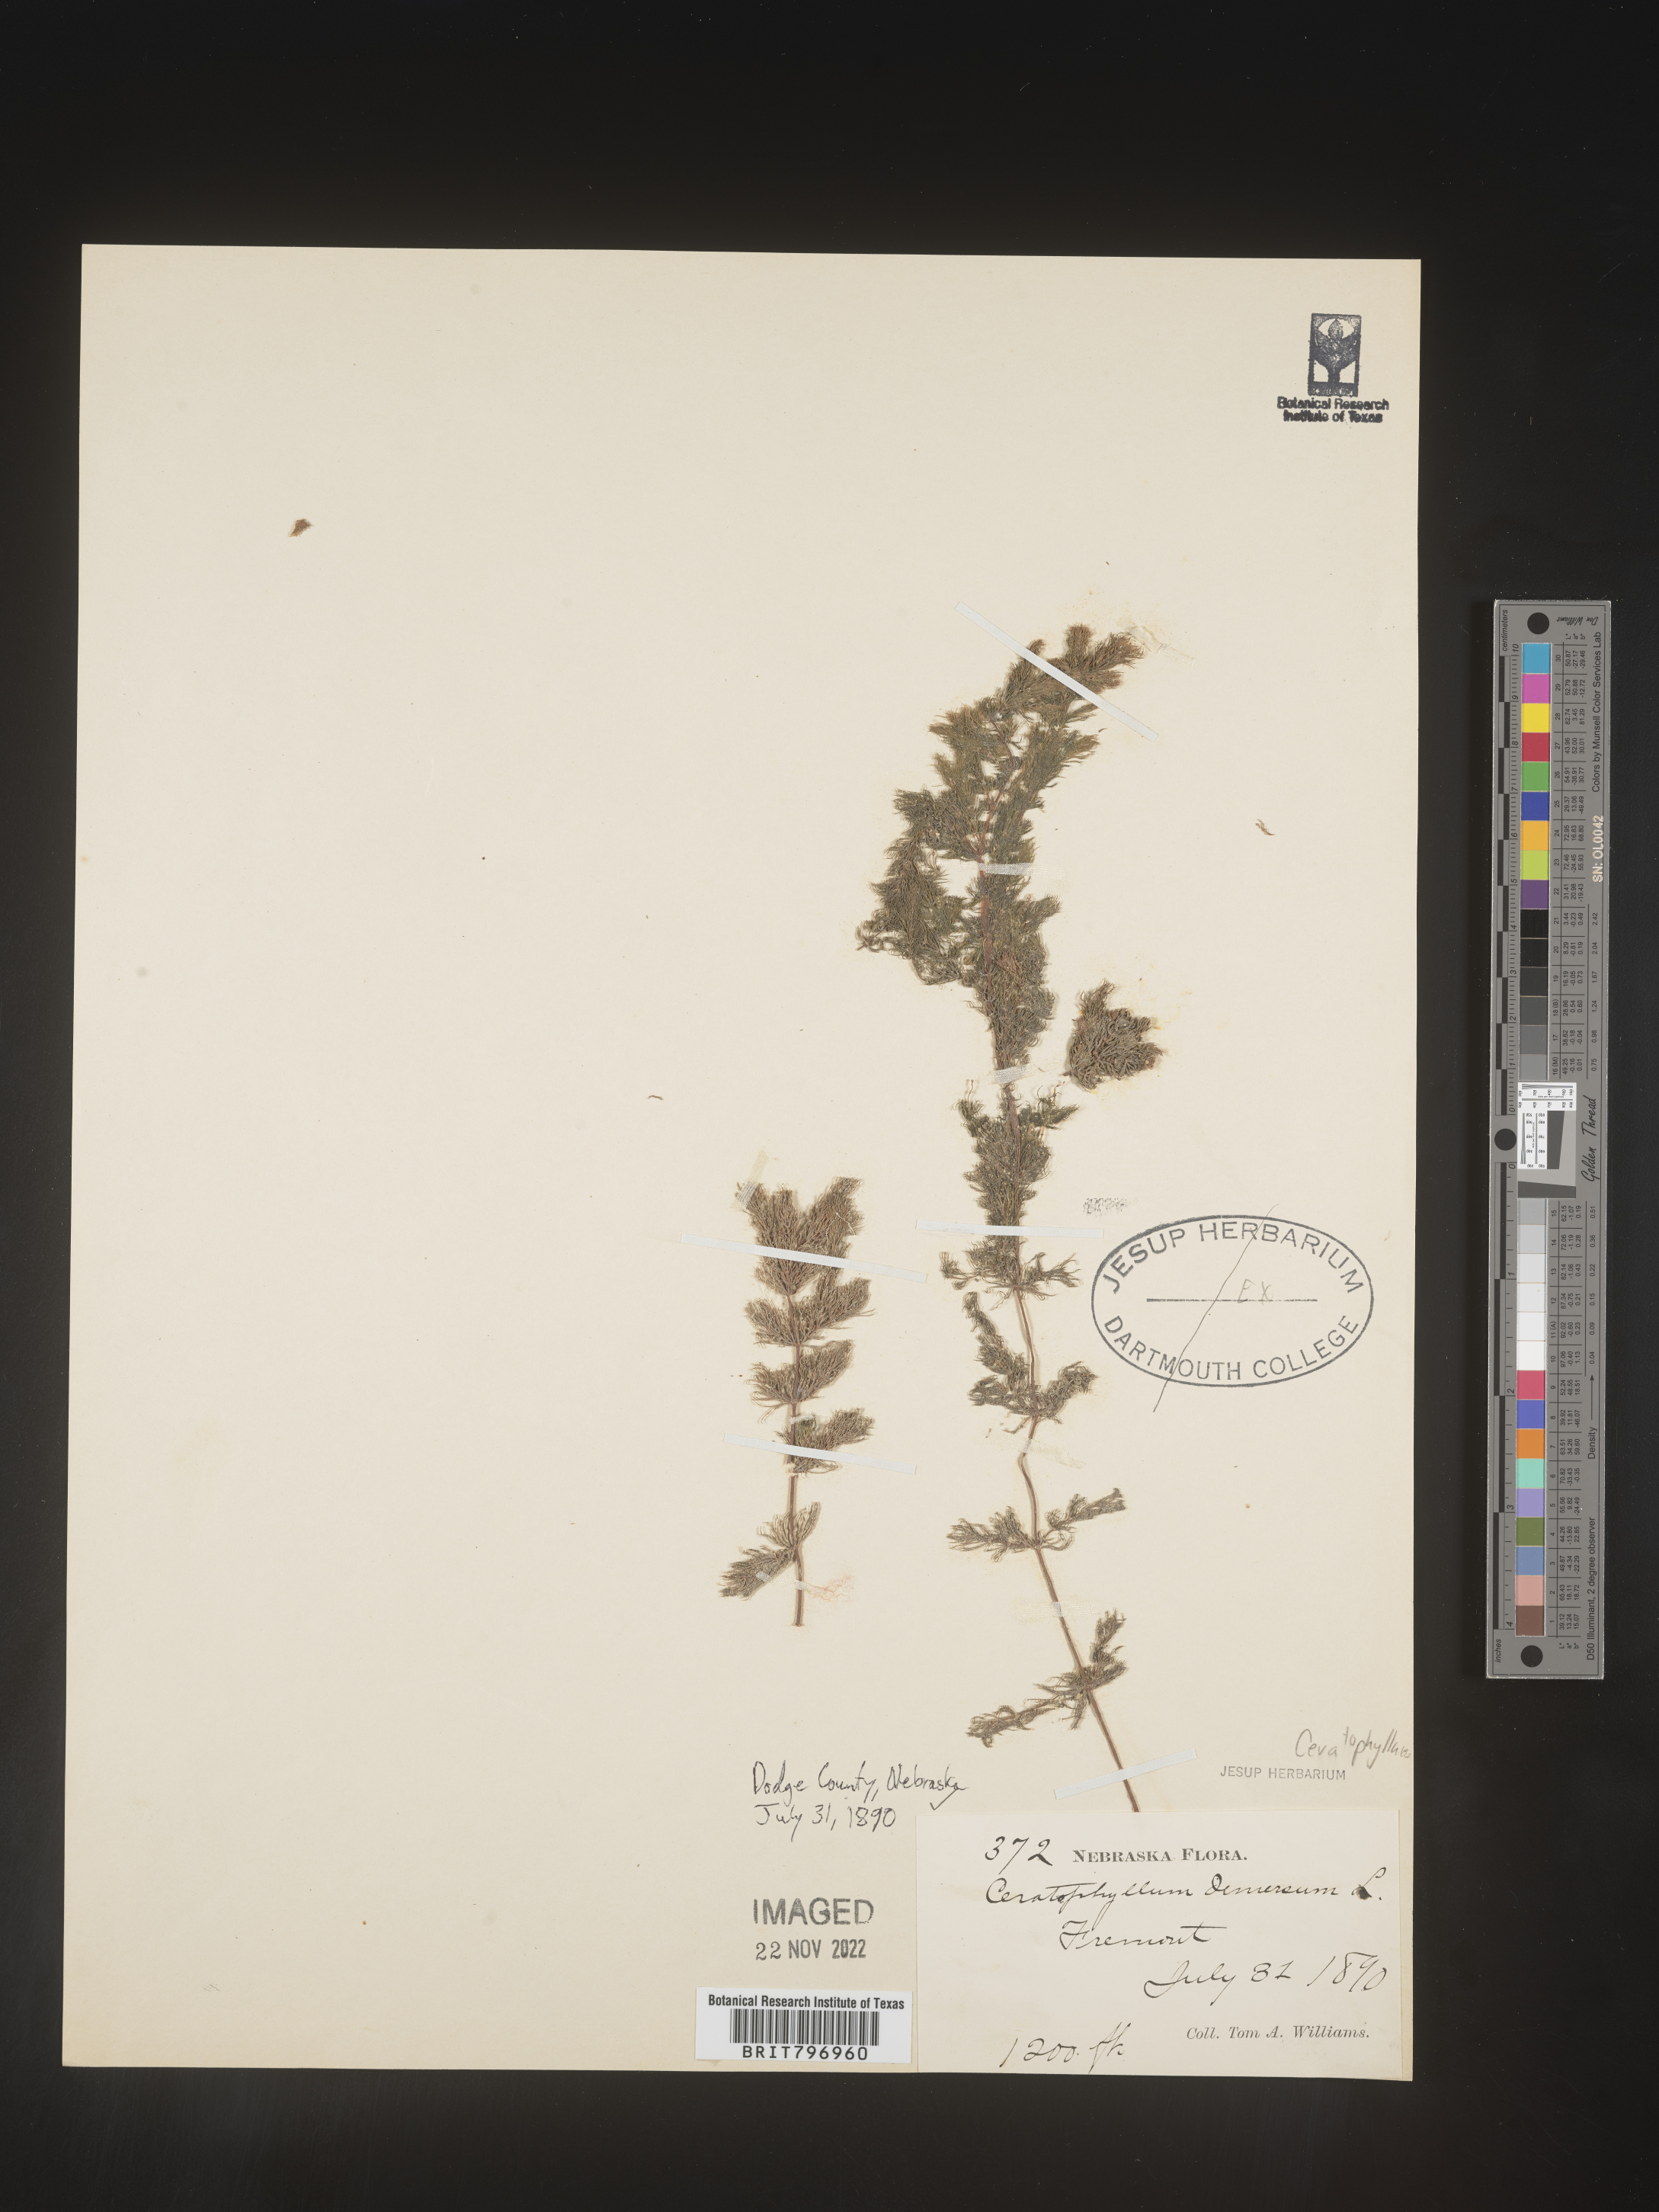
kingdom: Plantae
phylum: Tracheophyta
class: Magnoliopsida
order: Ceratophyllales
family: Ceratophyllaceae
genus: Ceratophyllum
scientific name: Ceratophyllum demersum
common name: Rigid hornwort
